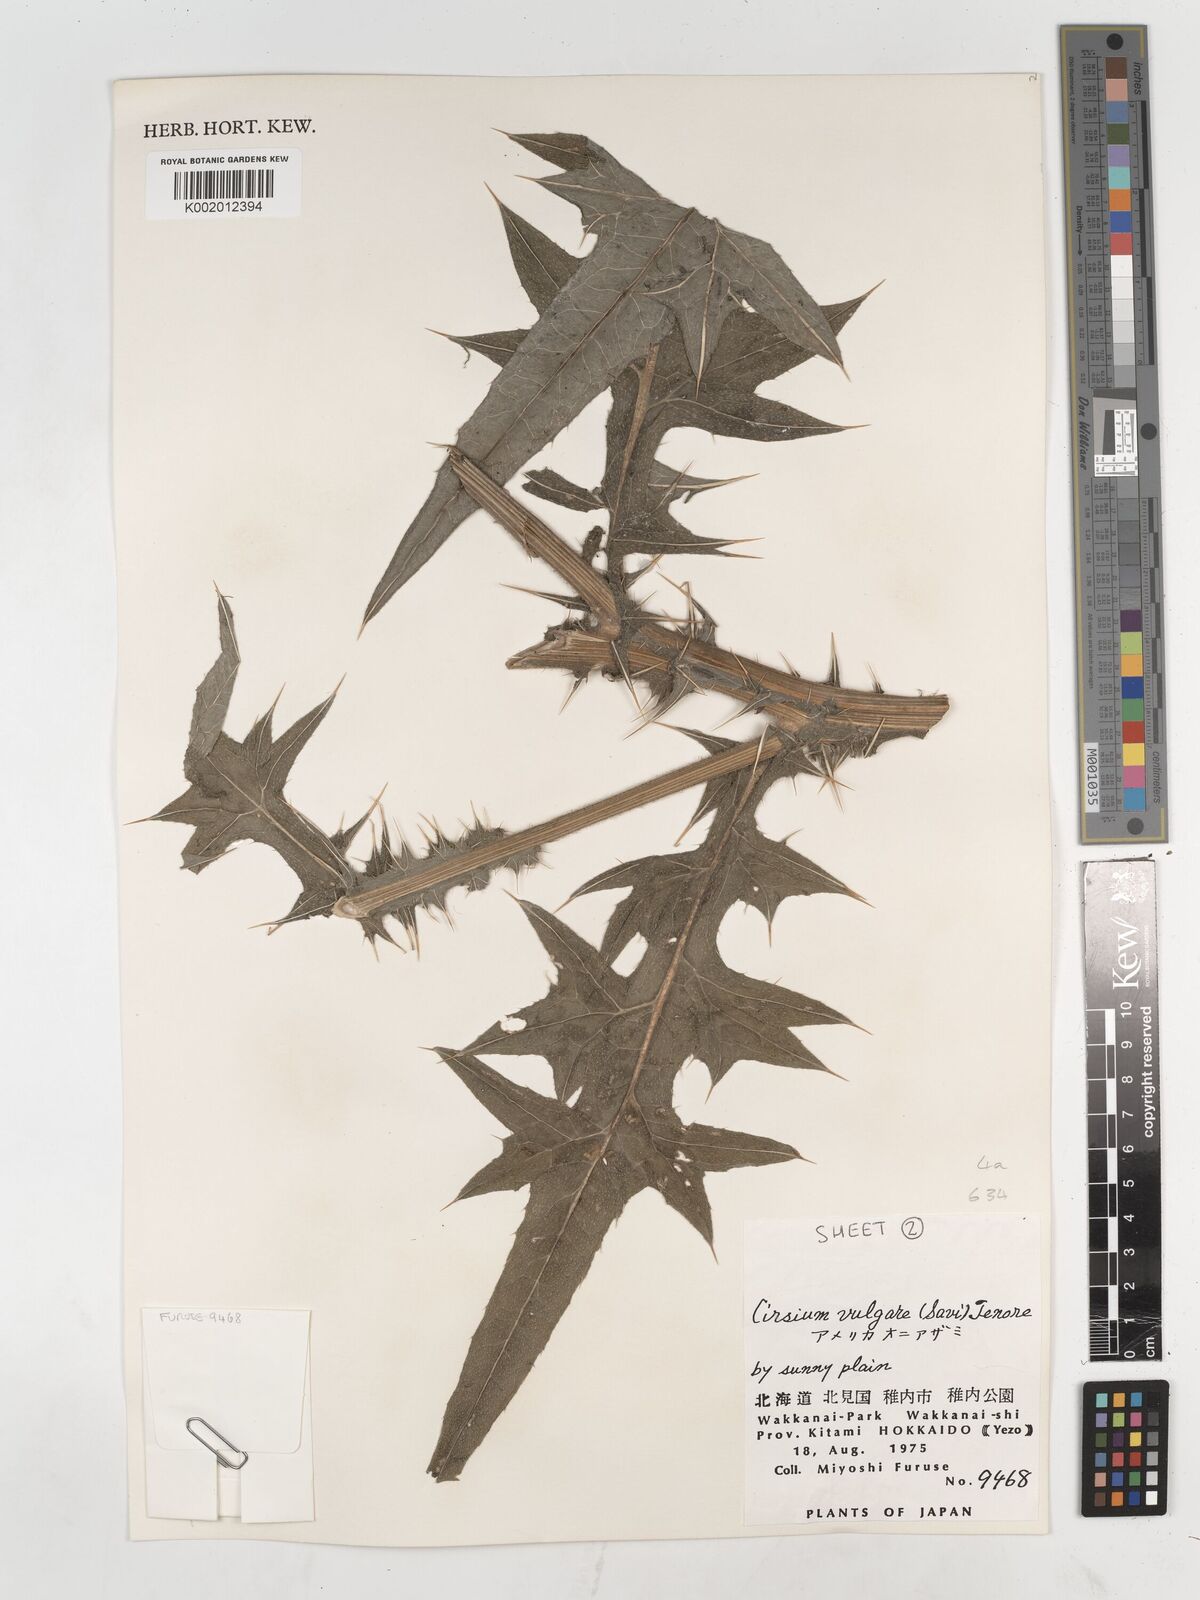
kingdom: Plantae
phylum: Tracheophyta
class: Magnoliopsida
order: Asterales
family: Asteraceae
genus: Cirsium
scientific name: Cirsium vulgare
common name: Bull thistle
